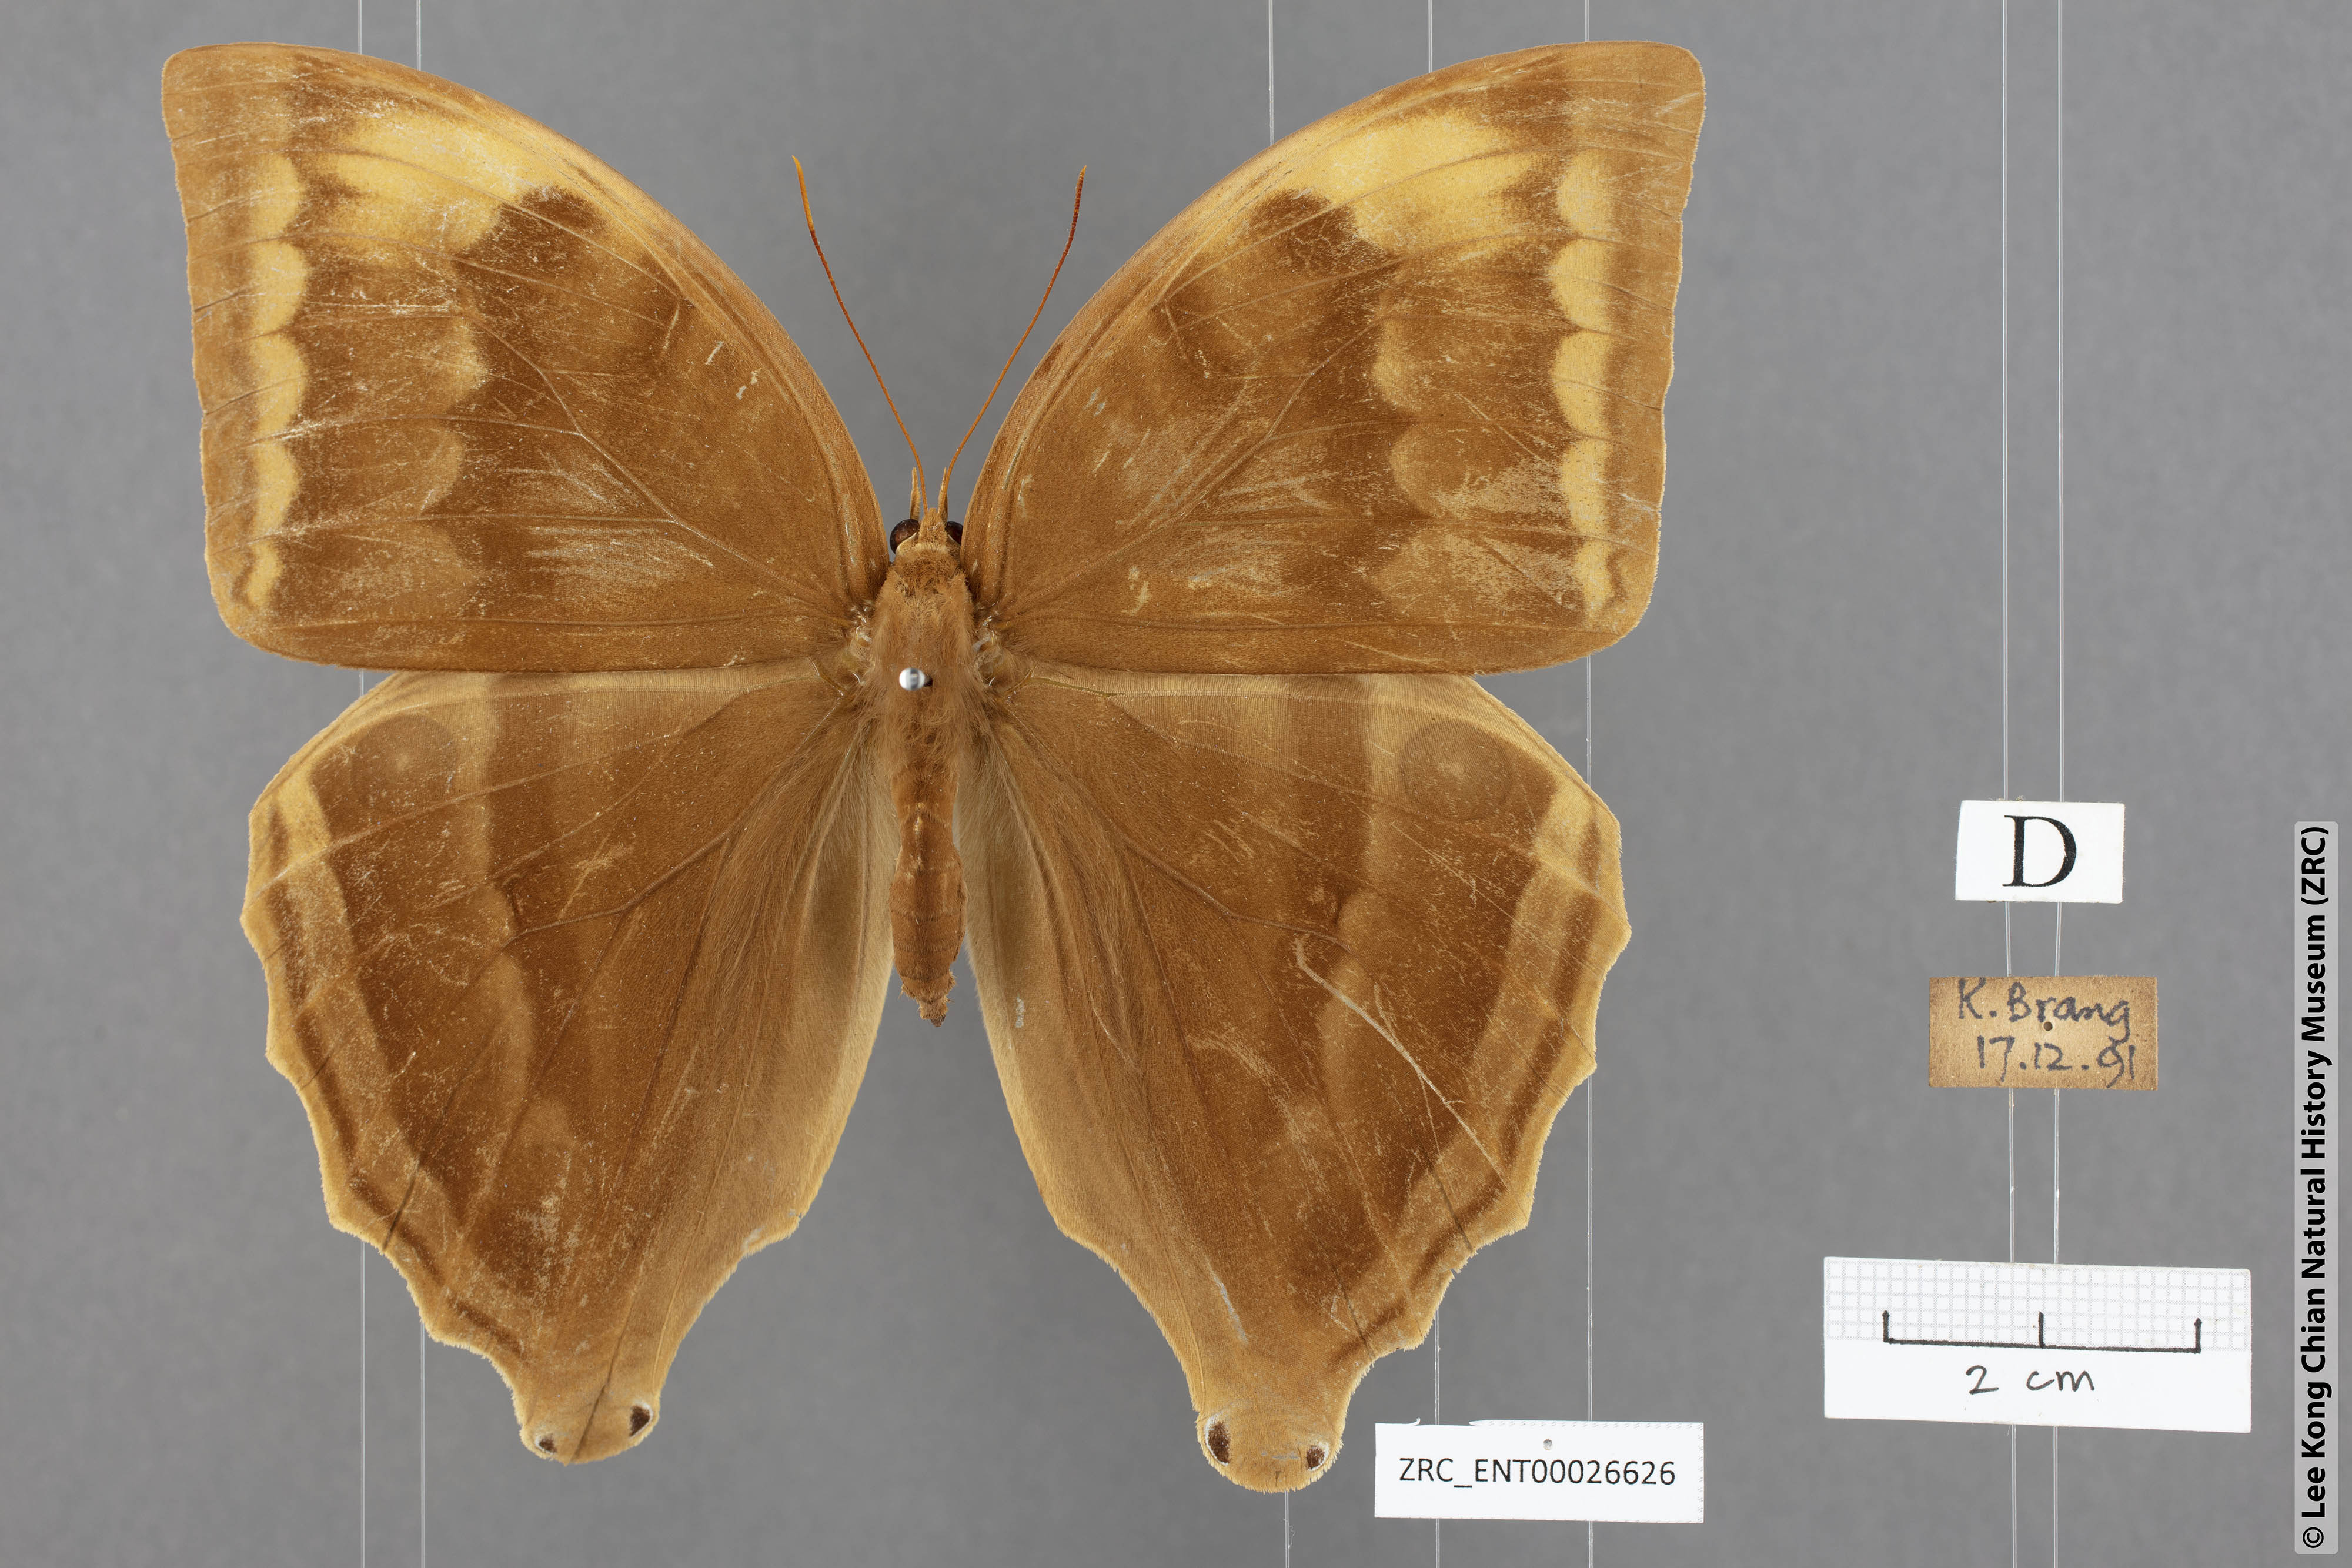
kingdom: Animalia
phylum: Arthropoda
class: Insecta
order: Lepidoptera
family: Nymphalidae
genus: Amathusia
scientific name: Amathusia phidippus
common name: Palm king
